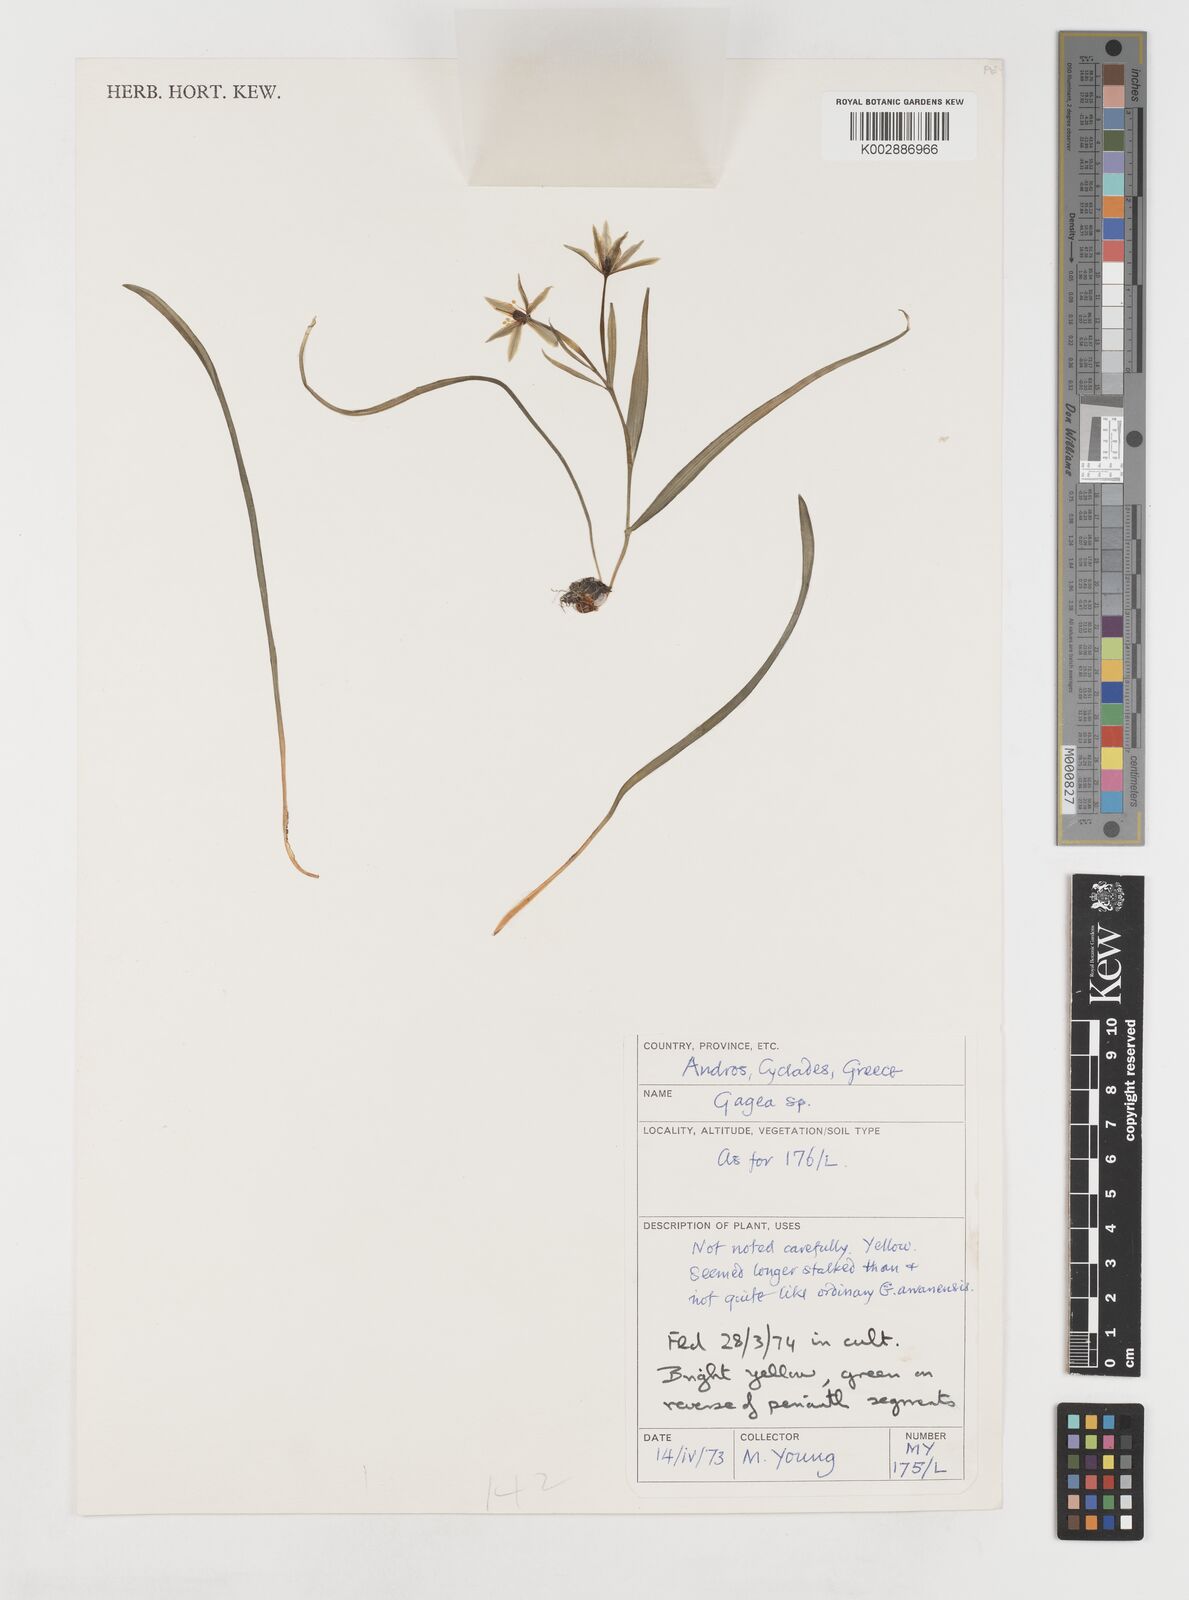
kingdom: Plantae
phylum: Tracheophyta
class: Liliopsida
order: Liliales
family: Liliaceae
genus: Gagea
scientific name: Gagea amblyopetala
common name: Blunt-flowered gagea
